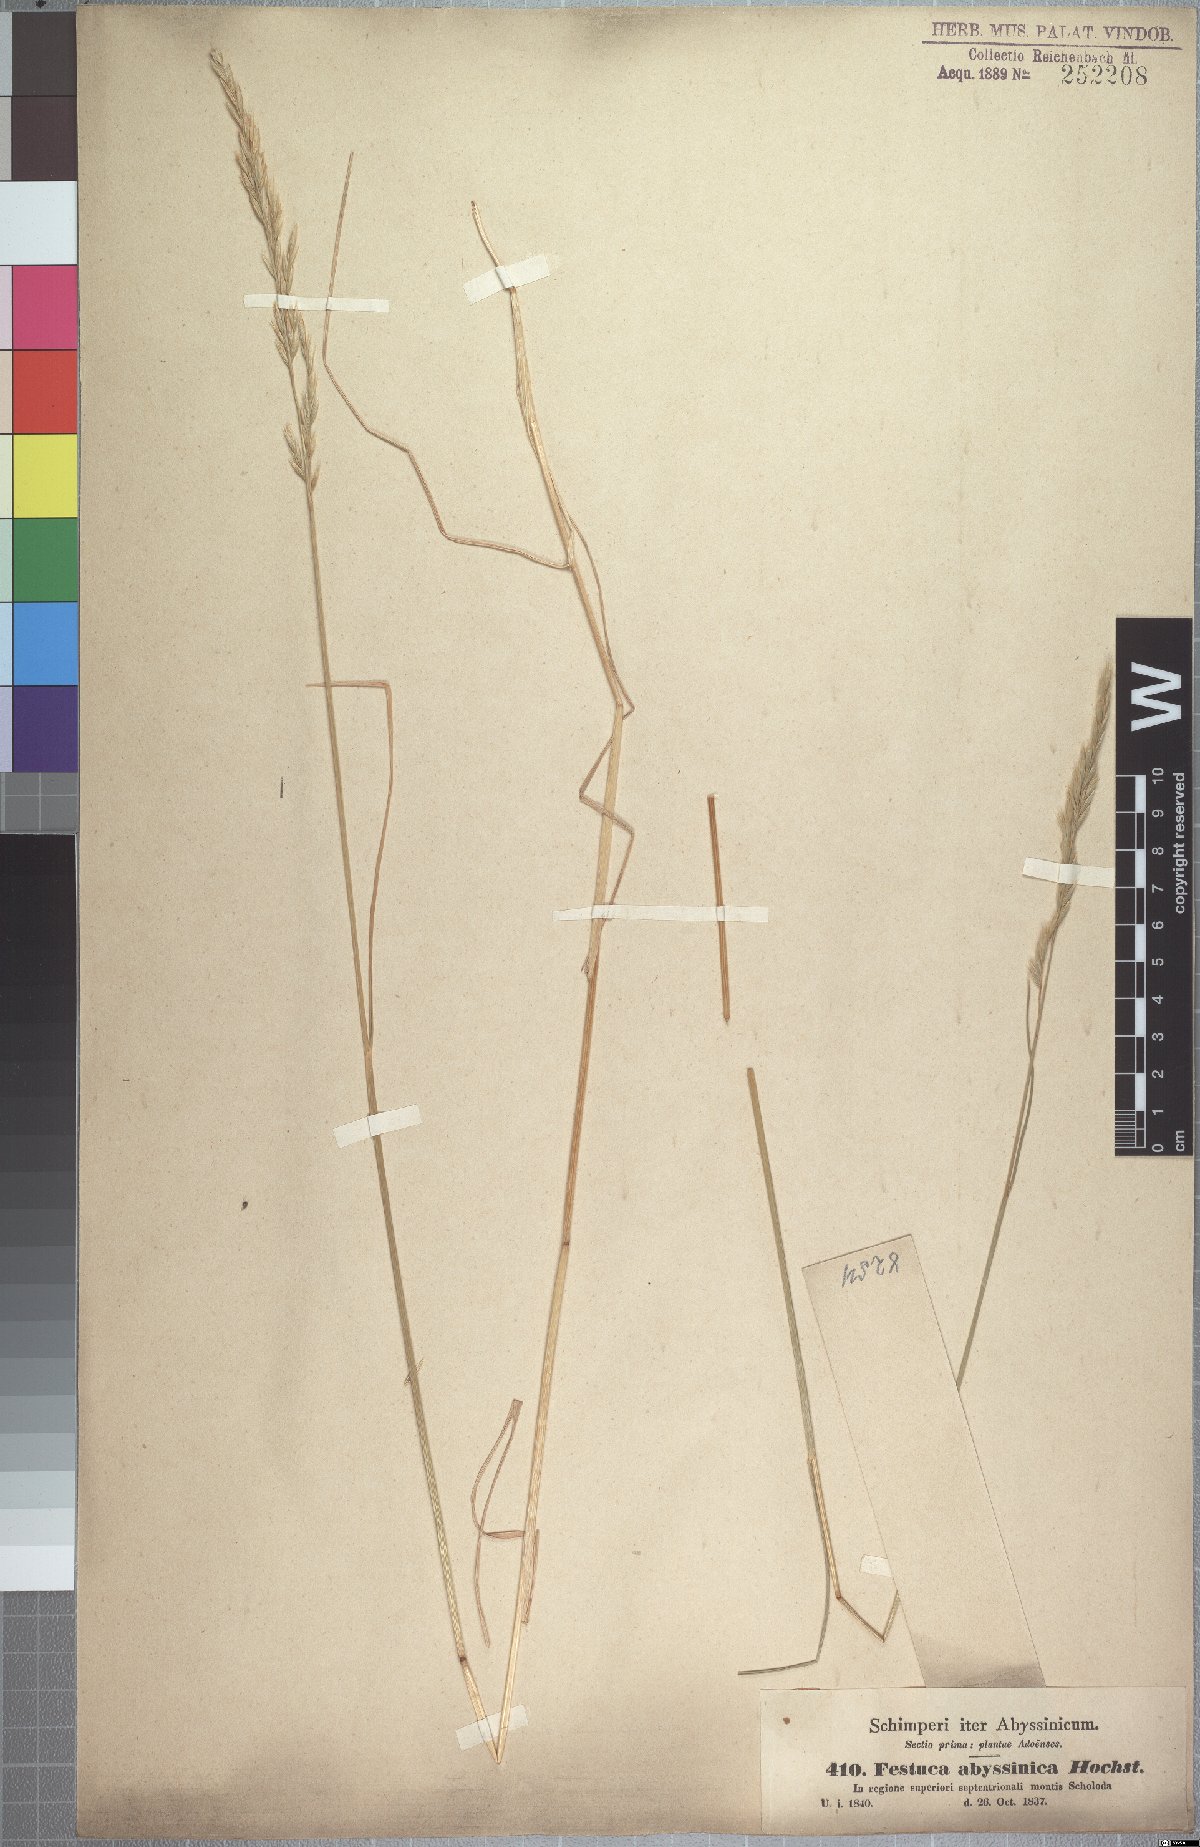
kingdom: Plantae
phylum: Tracheophyta
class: Liliopsida
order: Poales
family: Poaceae
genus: Festuca
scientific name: Festuca abyssinica
